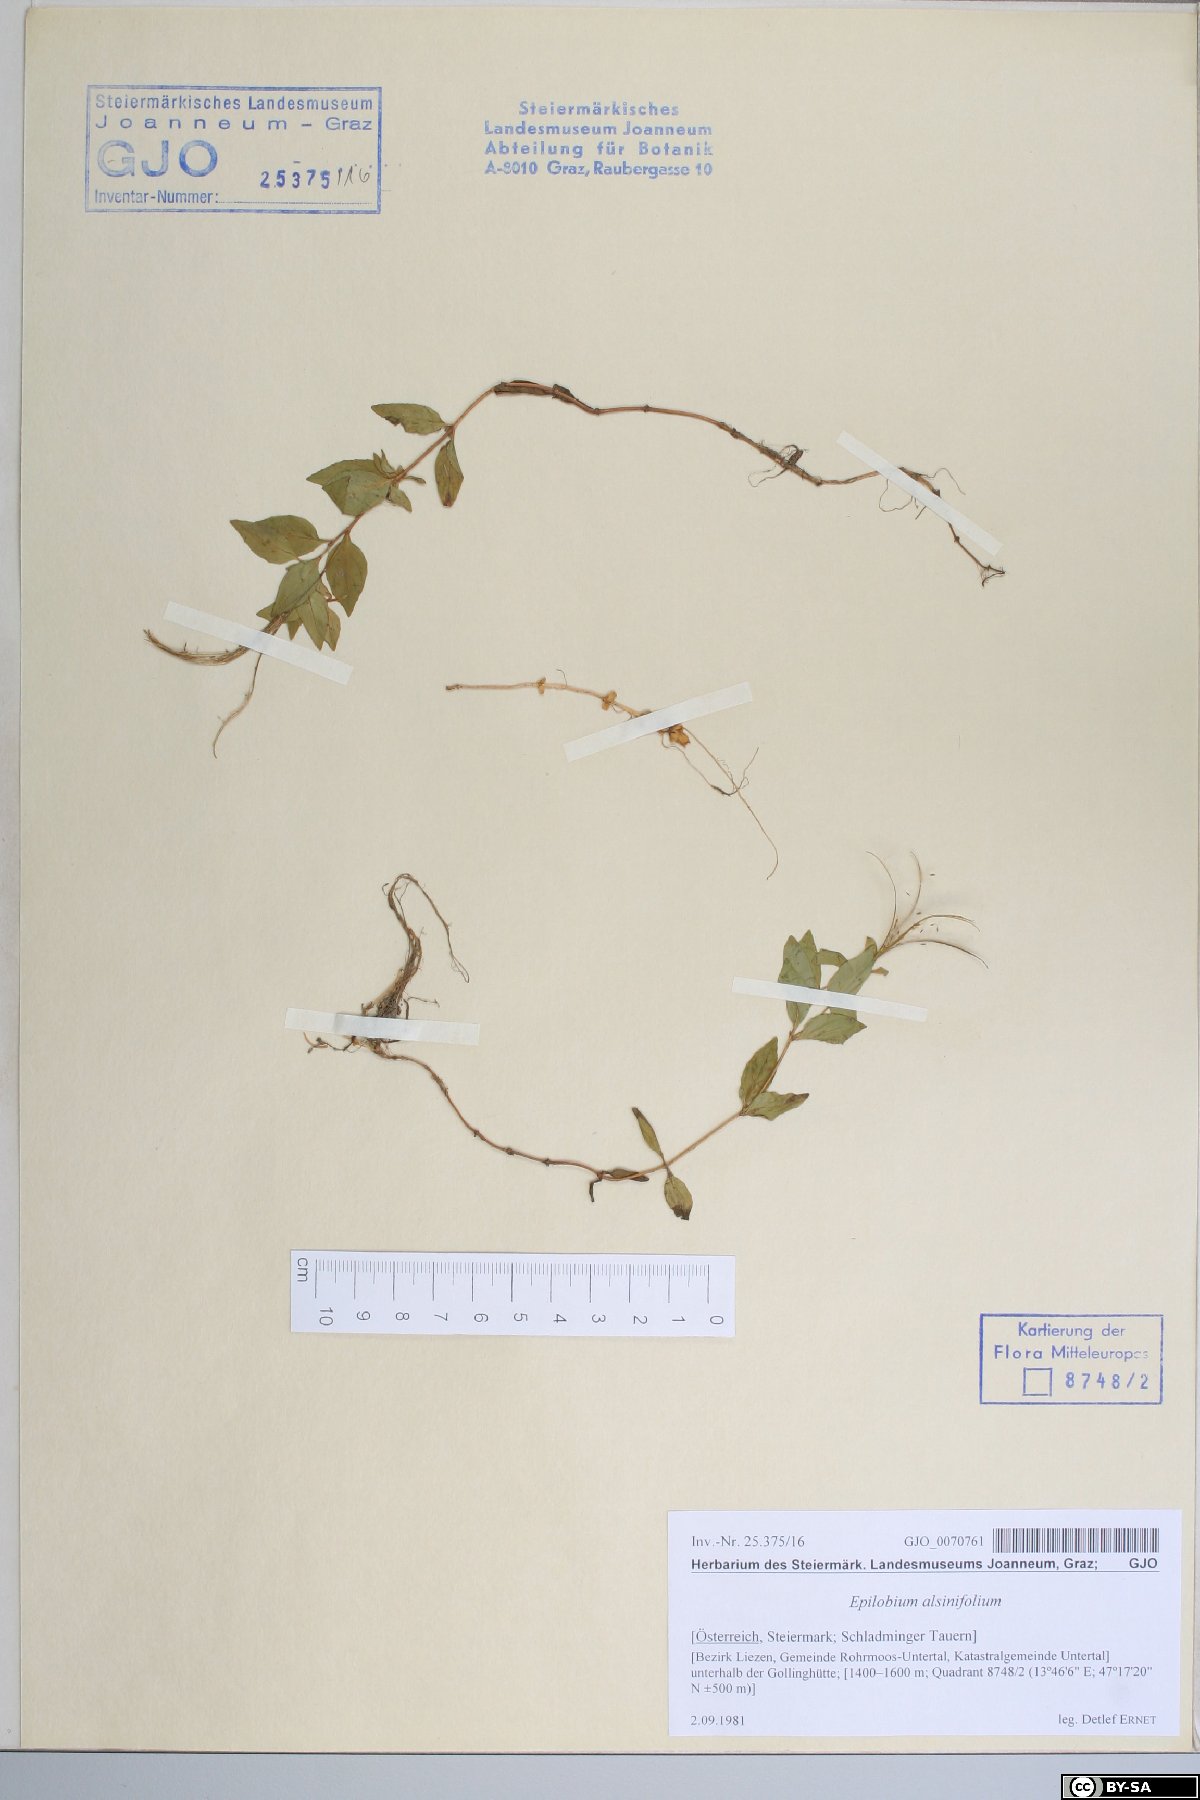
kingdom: Plantae
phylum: Tracheophyta
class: Magnoliopsida
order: Myrtales
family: Onagraceae
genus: Epilobium
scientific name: Epilobium alsinifolium
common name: Chickweed willowherb
